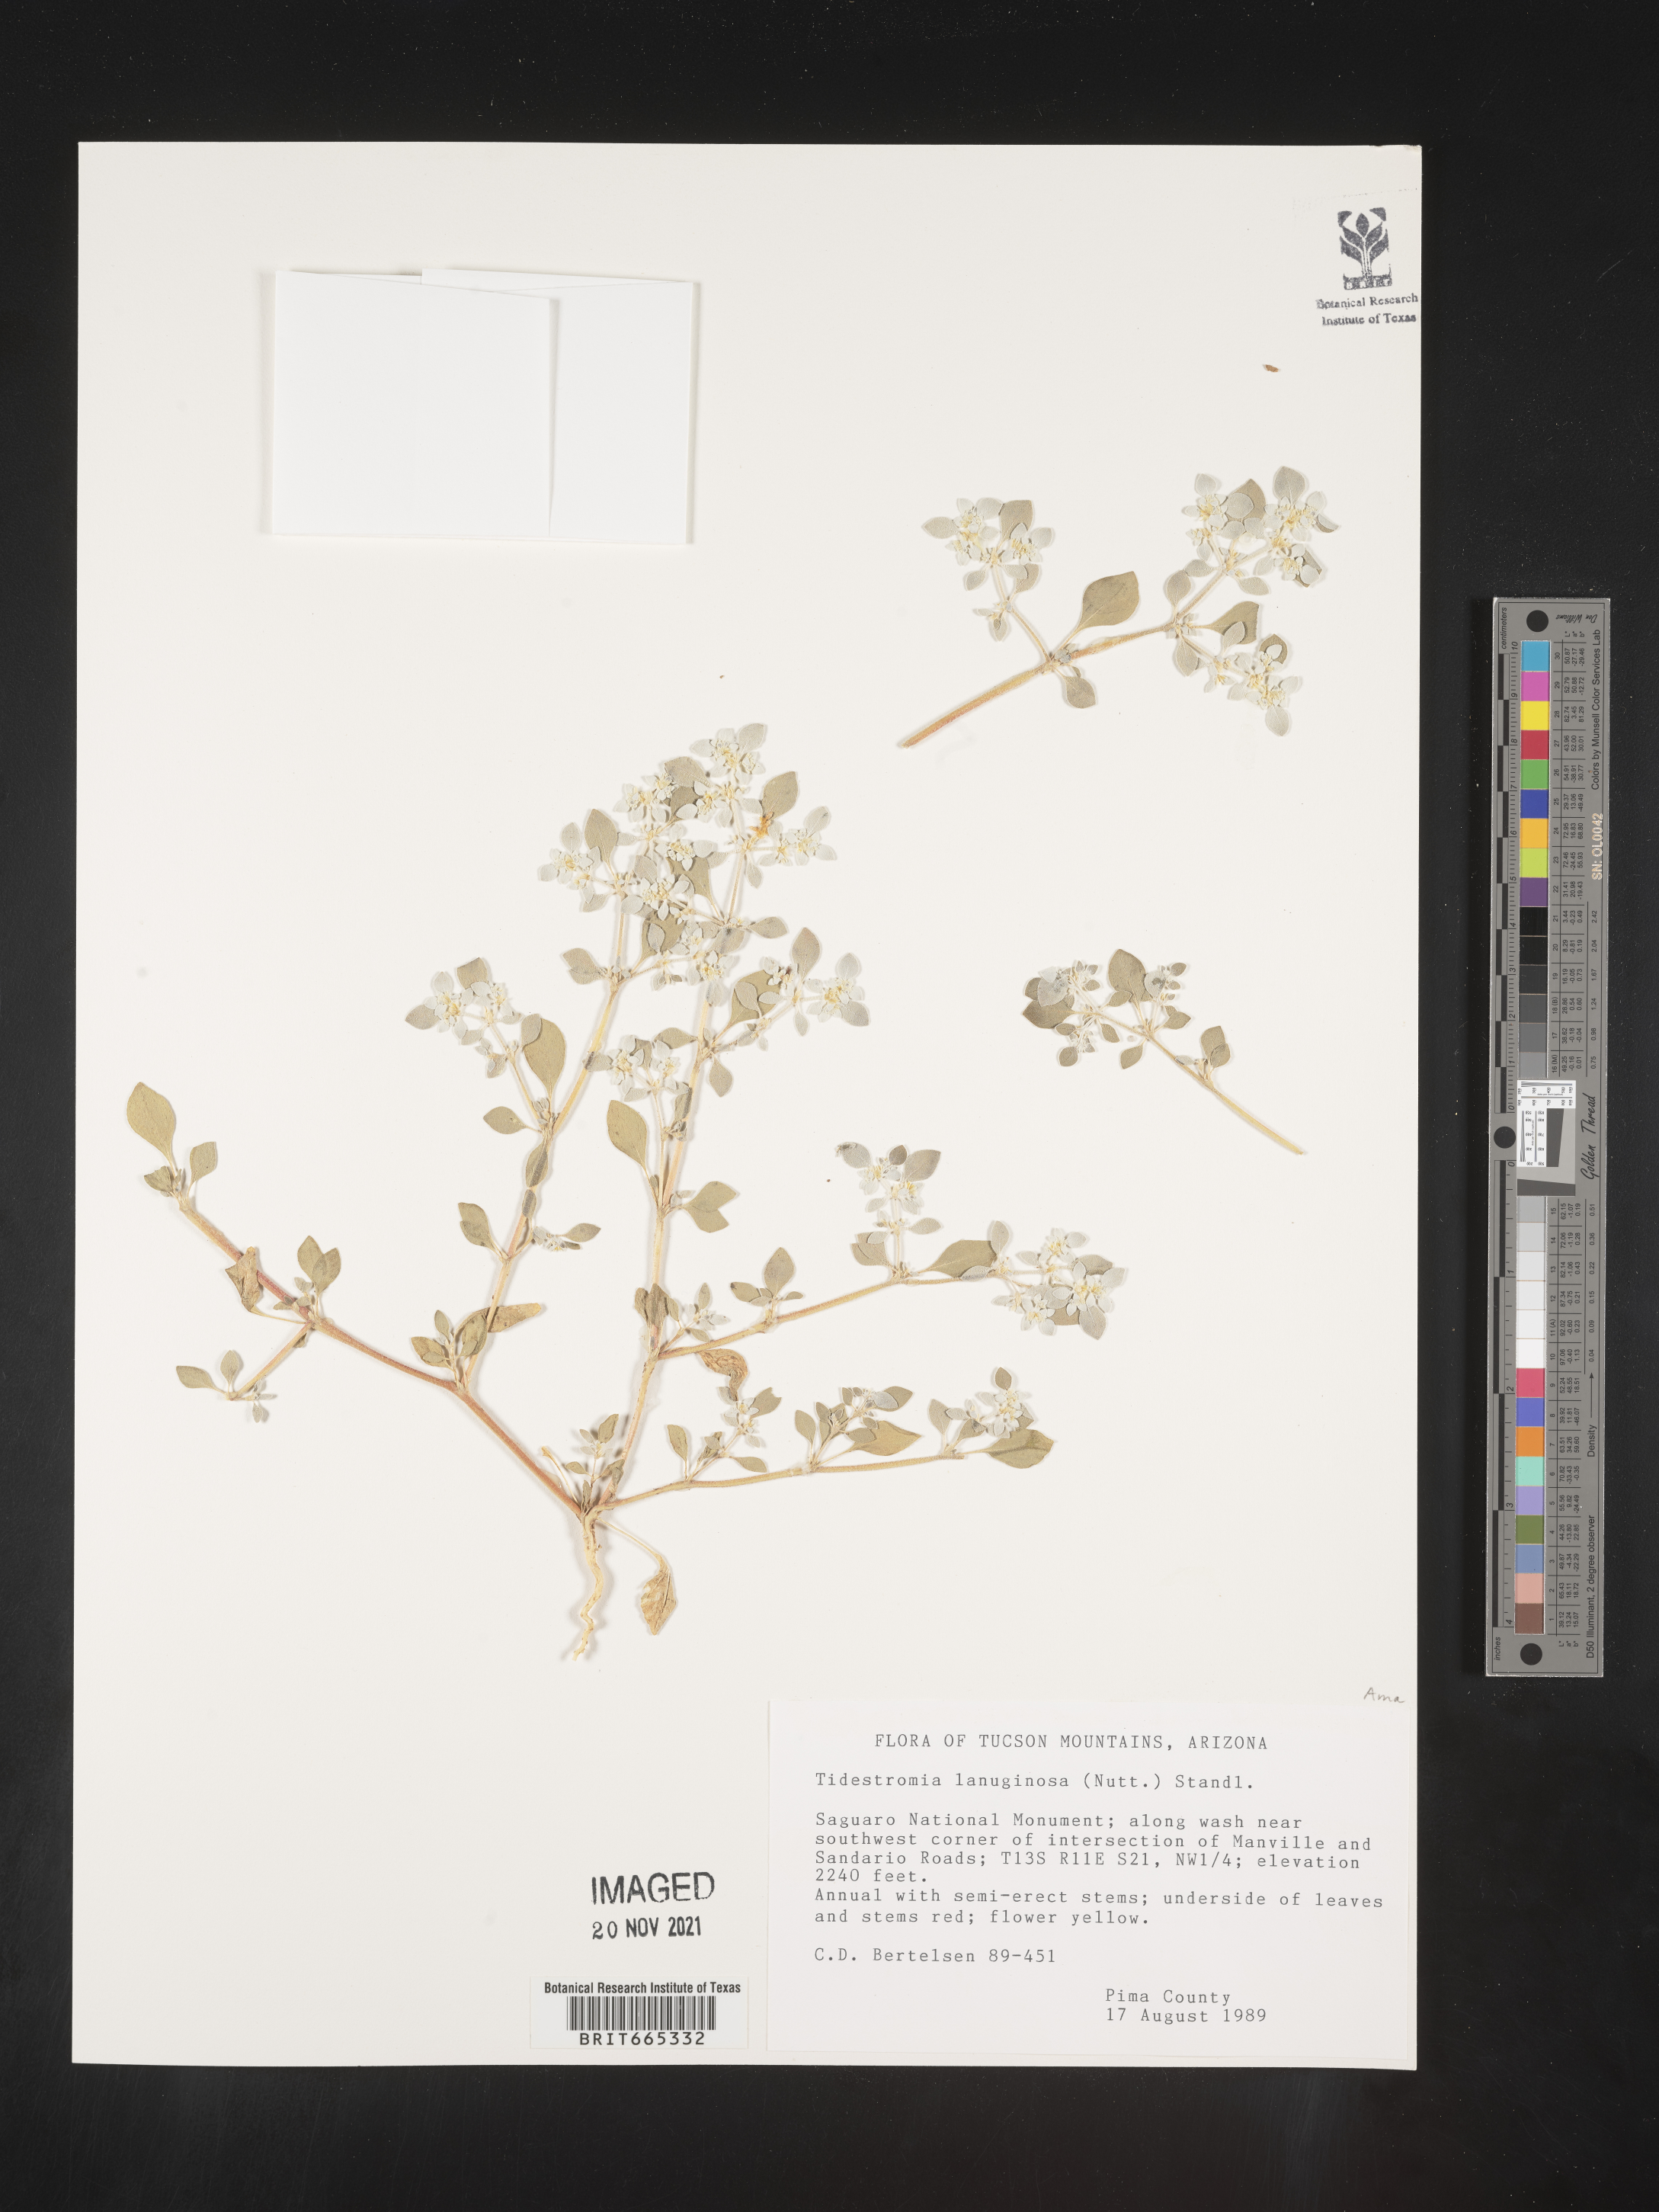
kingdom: Plantae
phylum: Tracheophyta
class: Magnoliopsida
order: Caryophyllales
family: Amaranthaceae
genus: Tidestromia
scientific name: Tidestromia lanuginosa
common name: Woolly tidestromia
